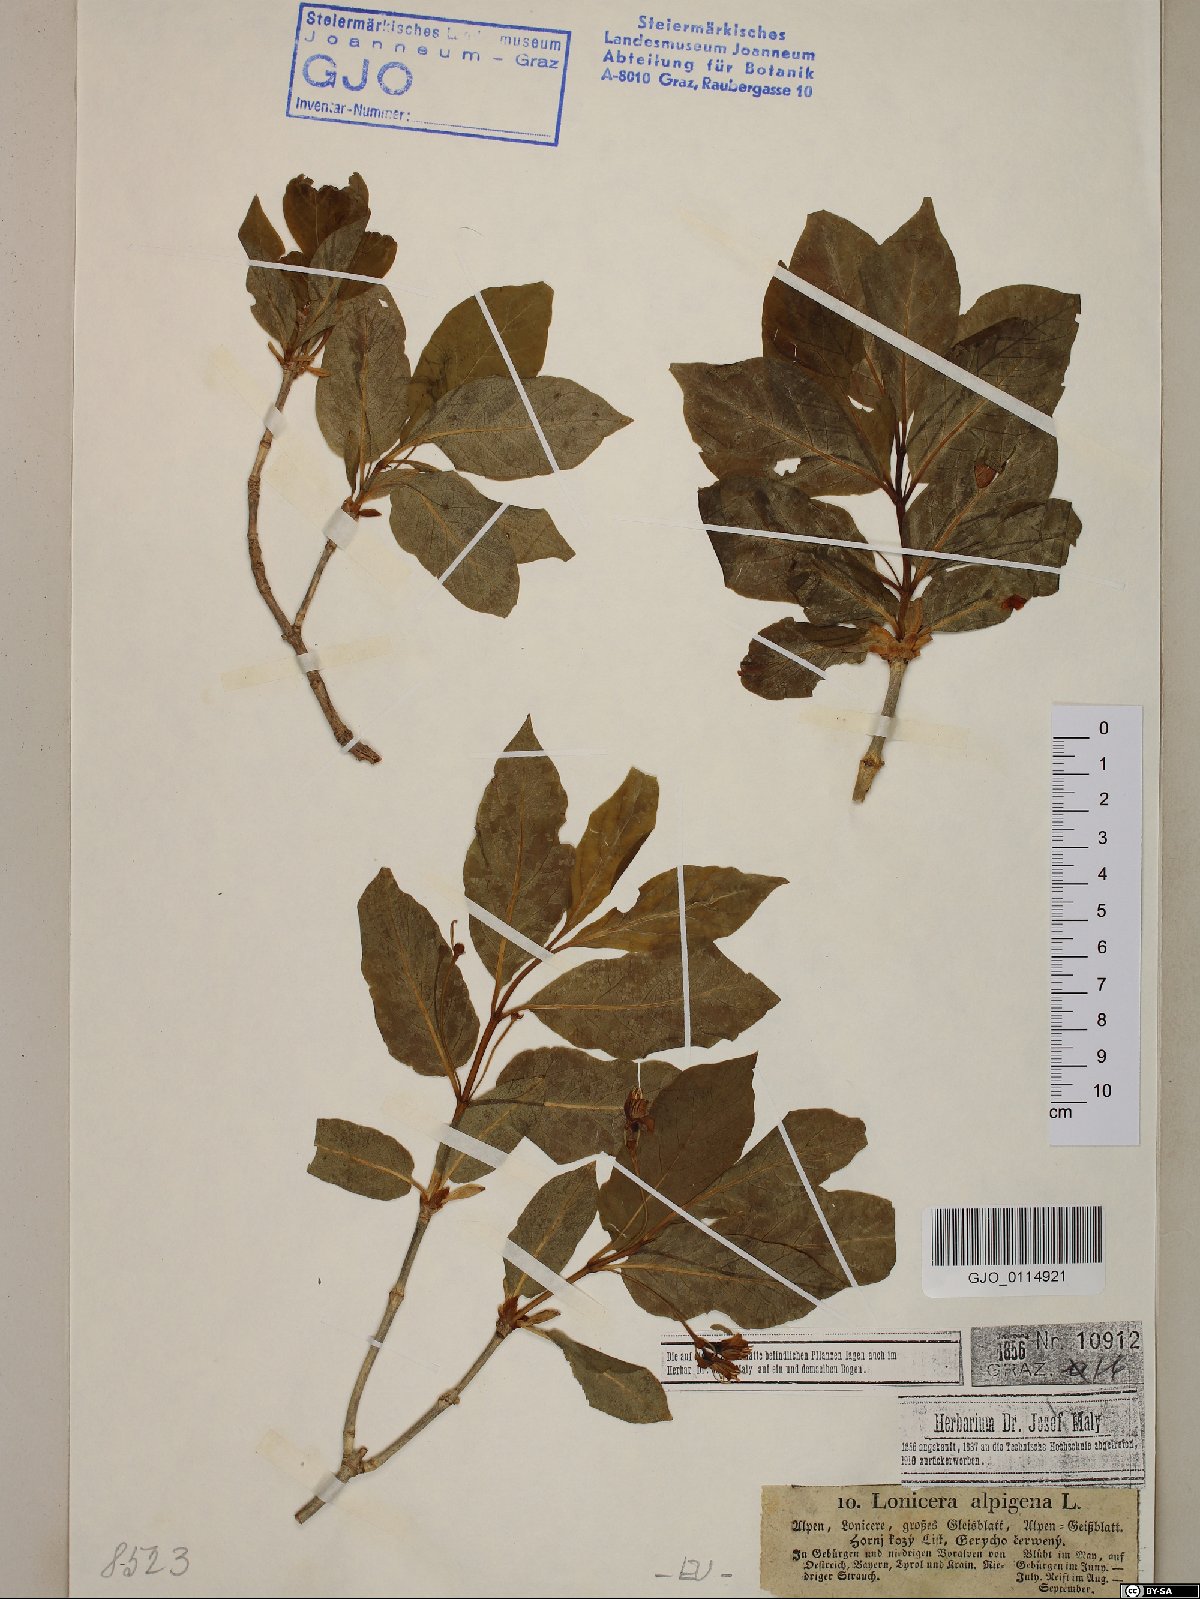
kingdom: Plantae
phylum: Tracheophyta
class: Magnoliopsida
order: Dipsacales
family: Caprifoliaceae
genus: Lonicera
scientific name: Lonicera alpigena
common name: Alpine honeysuckle
